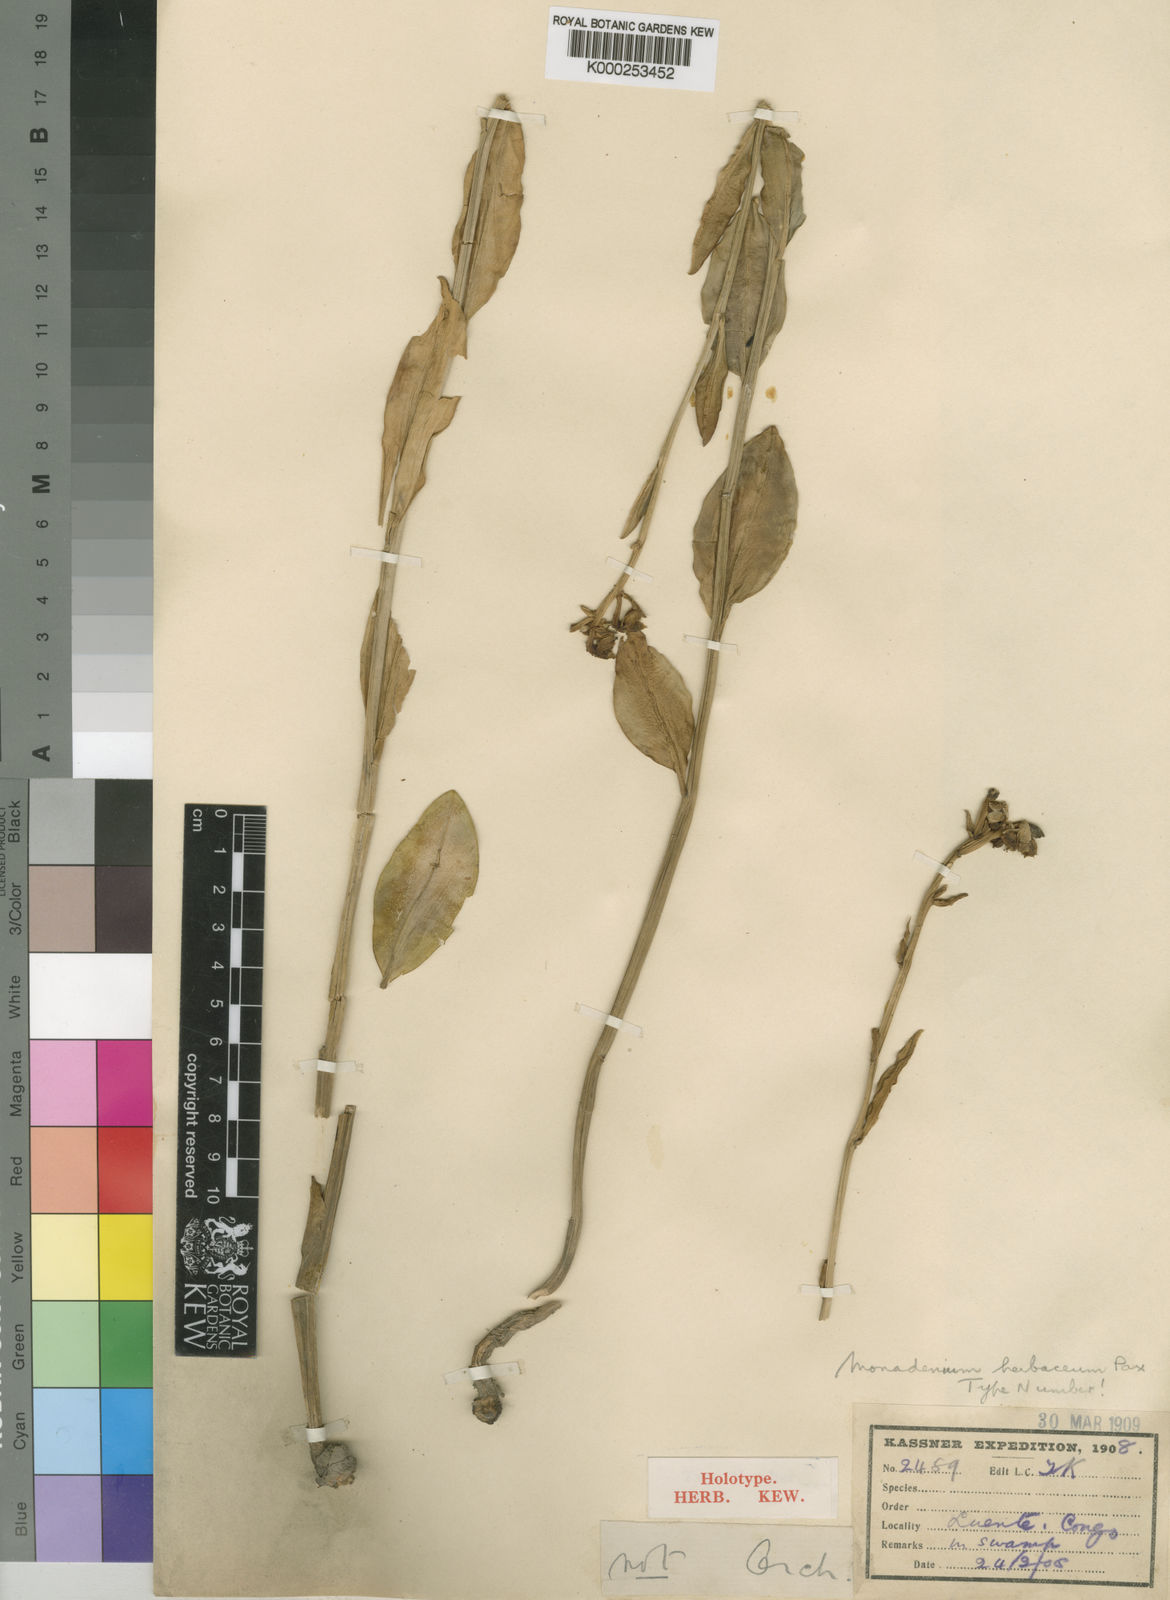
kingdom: Plantae
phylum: Tracheophyta
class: Magnoliopsida
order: Malpighiales
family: Euphorbiaceae
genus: Euphorbia
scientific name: Euphorbia herbacea
